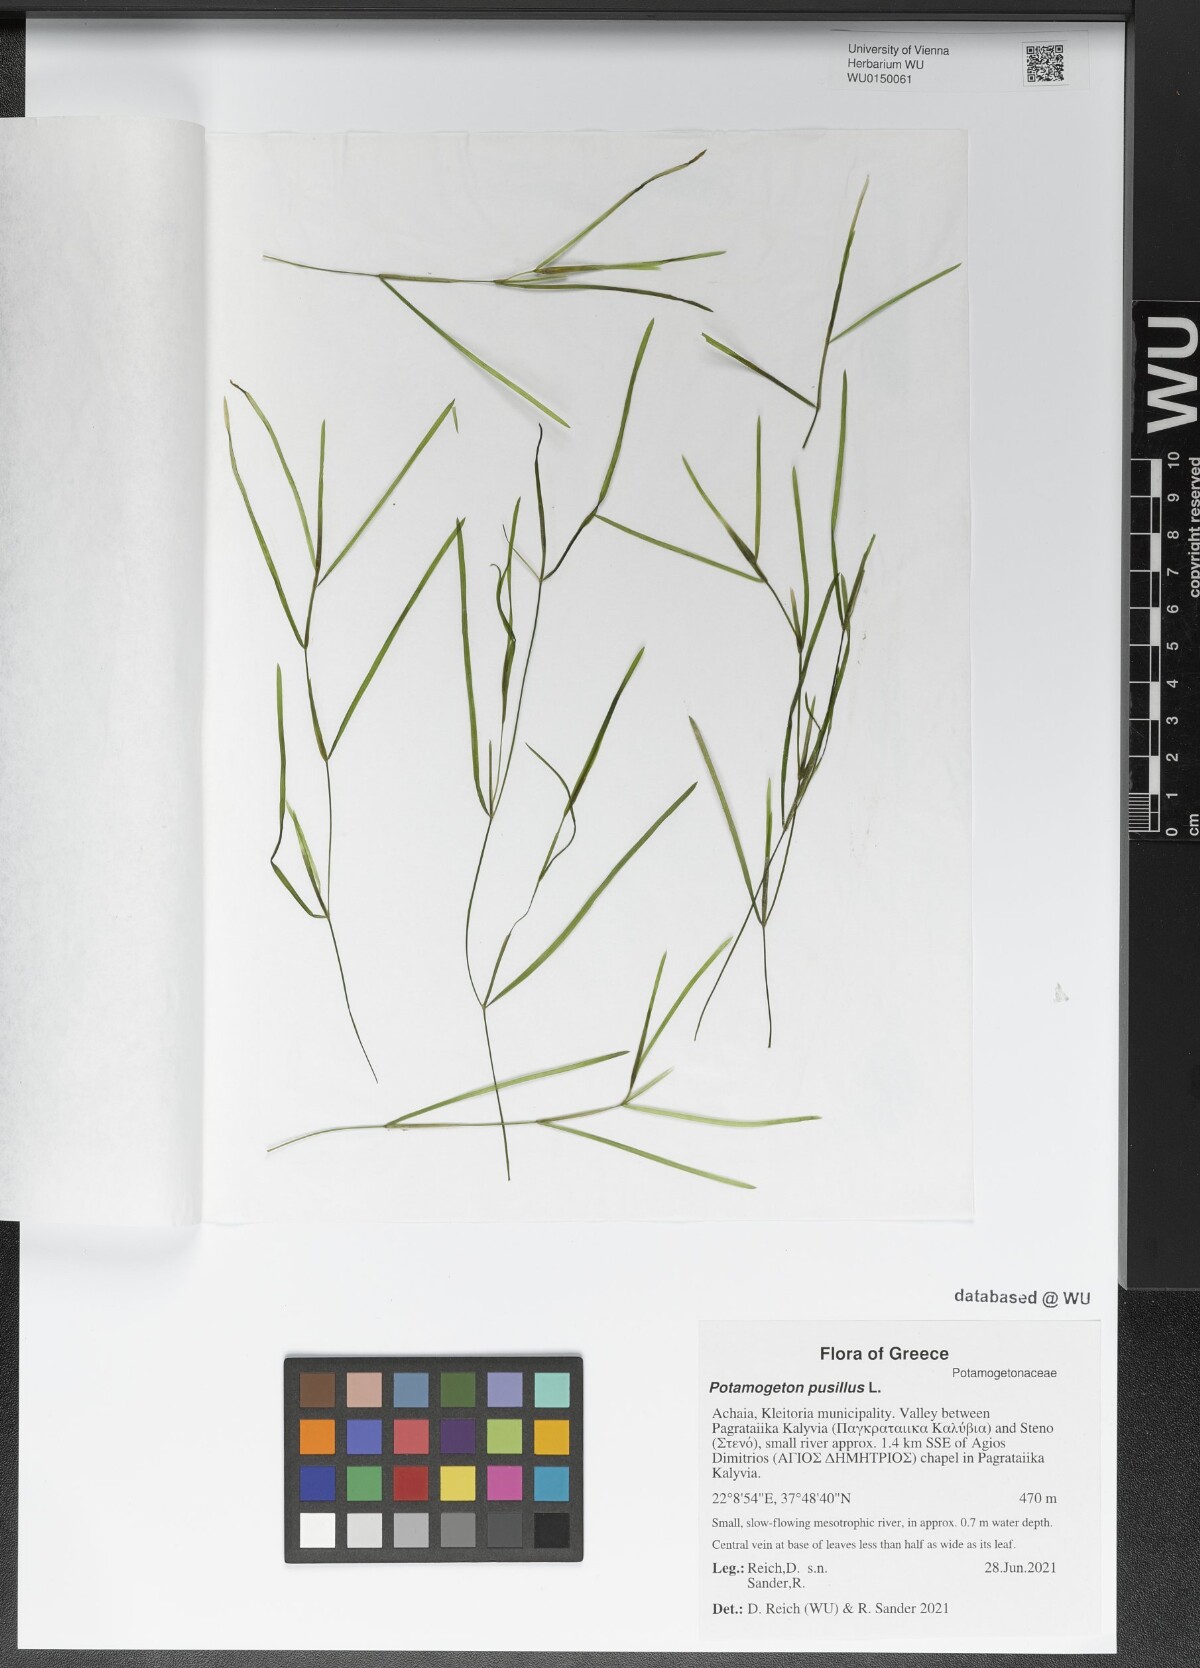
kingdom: Plantae
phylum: Tracheophyta
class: Liliopsida
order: Alismatales
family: Potamogetonaceae
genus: Potamogeton
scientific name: Potamogeton pusillus
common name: Lesser pondweed
